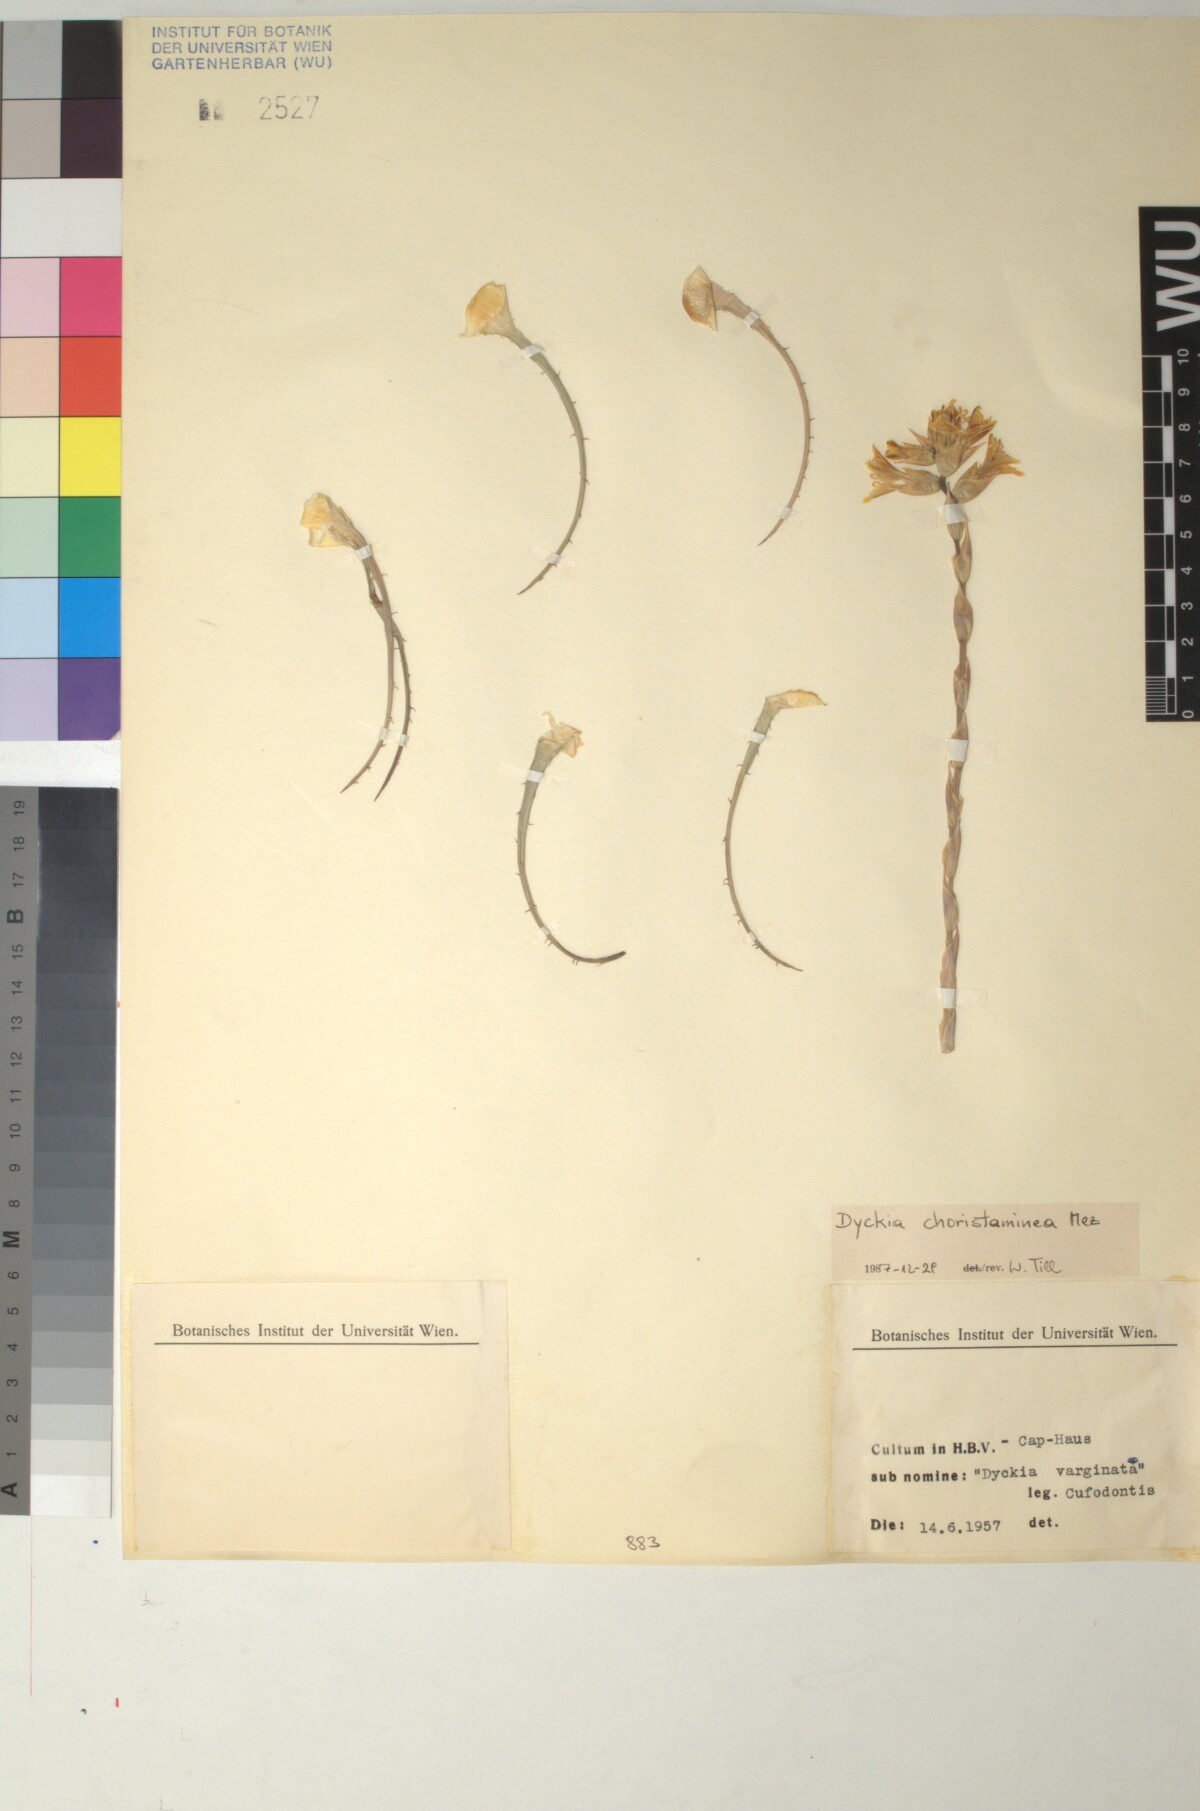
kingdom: Plantae
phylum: Tracheophyta
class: Liliopsida
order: Poales
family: Bromeliaceae
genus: Dyckia
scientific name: Dyckia choristaminea
